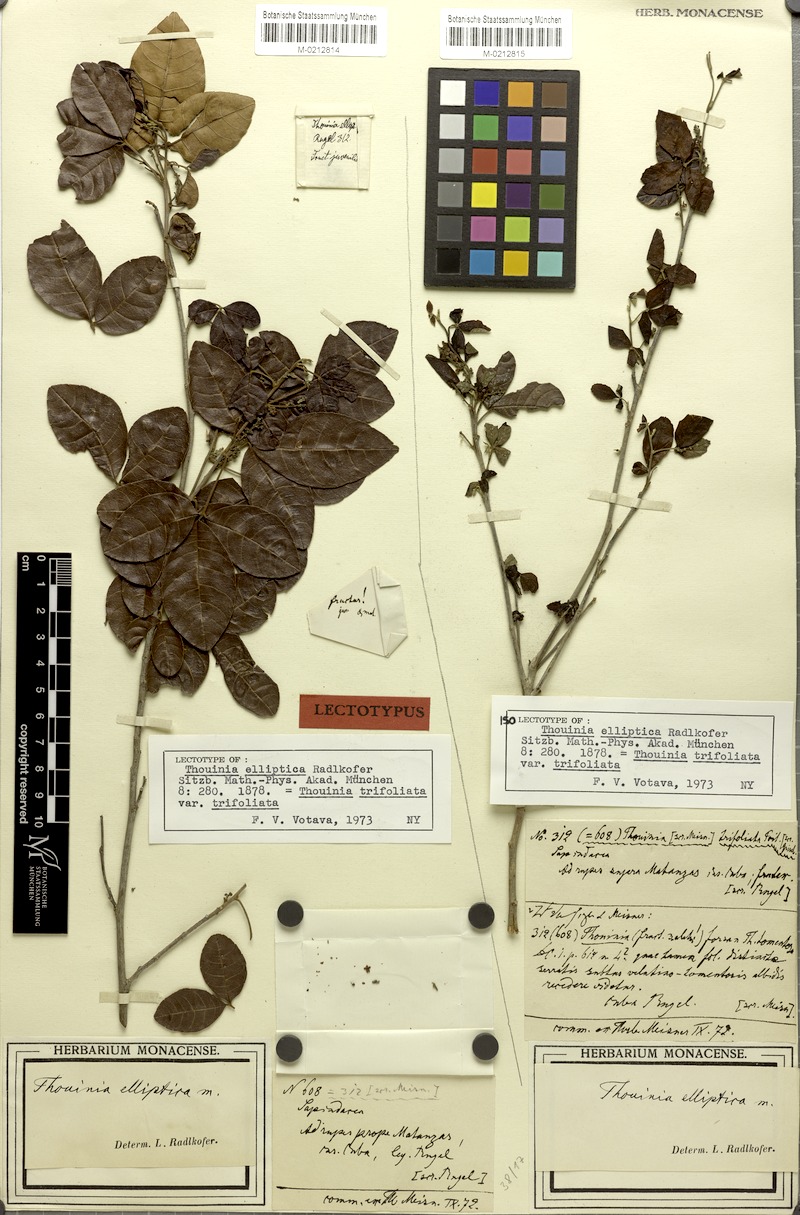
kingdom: Plantae
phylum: Tracheophyta
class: Magnoliopsida
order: Sapindales
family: Sapindaceae
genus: Thouinia
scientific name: Thouinia trifoliata
